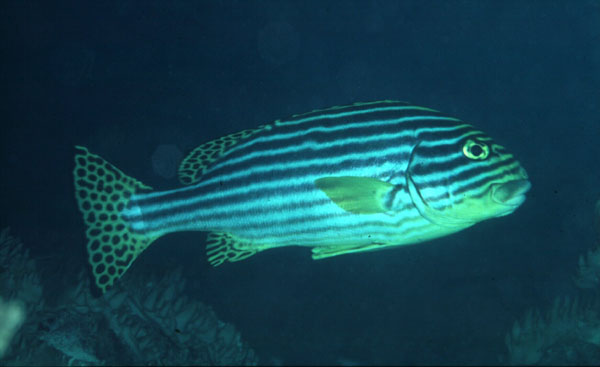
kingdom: Animalia
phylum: Chordata
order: Perciformes
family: Haemulidae
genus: Plectorhinchus
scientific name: Plectorhinchus vittatus
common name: Oriental sweetlips
